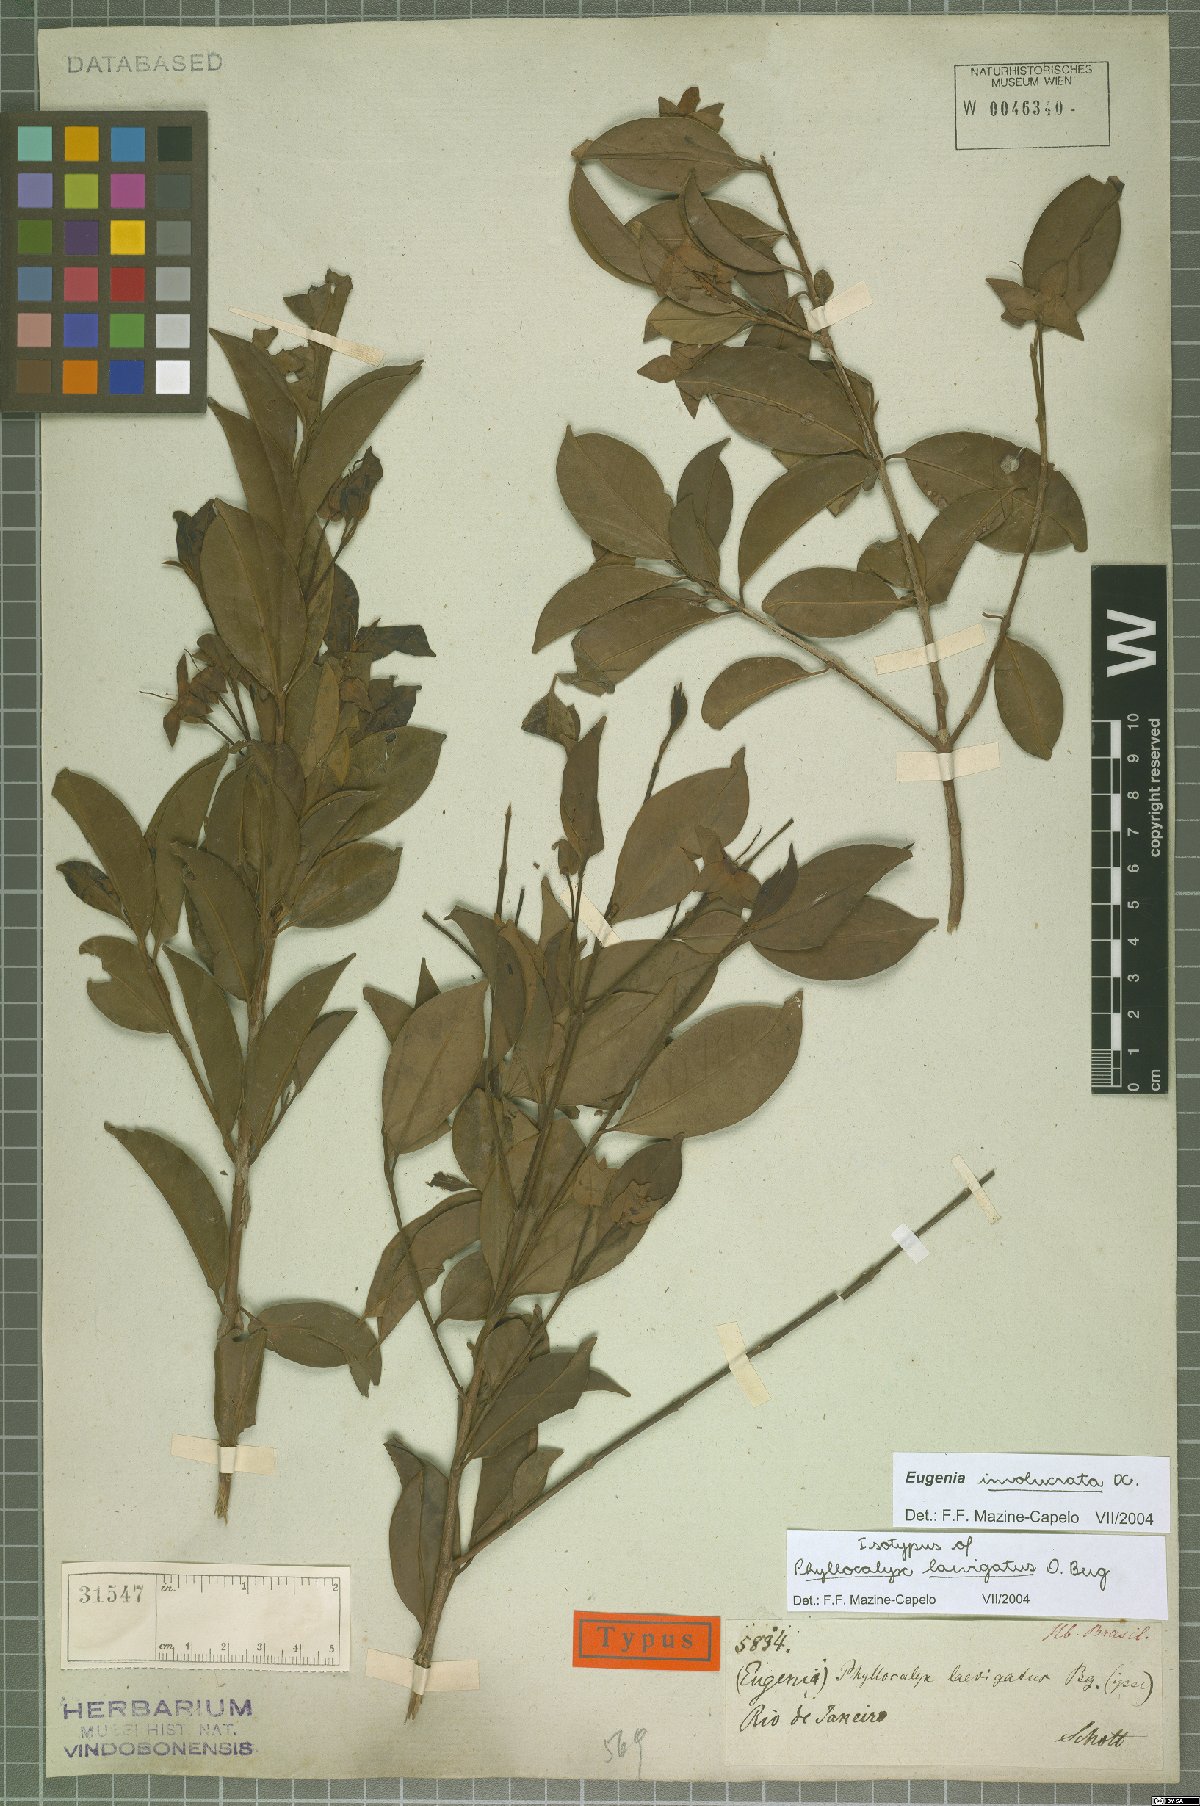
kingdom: Plantae
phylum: Tracheophyta
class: Magnoliopsida
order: Myrtales
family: Myrtaceae
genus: Eugenia
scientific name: Eugenia involucrata
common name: Cherry-of-the-rio grande
